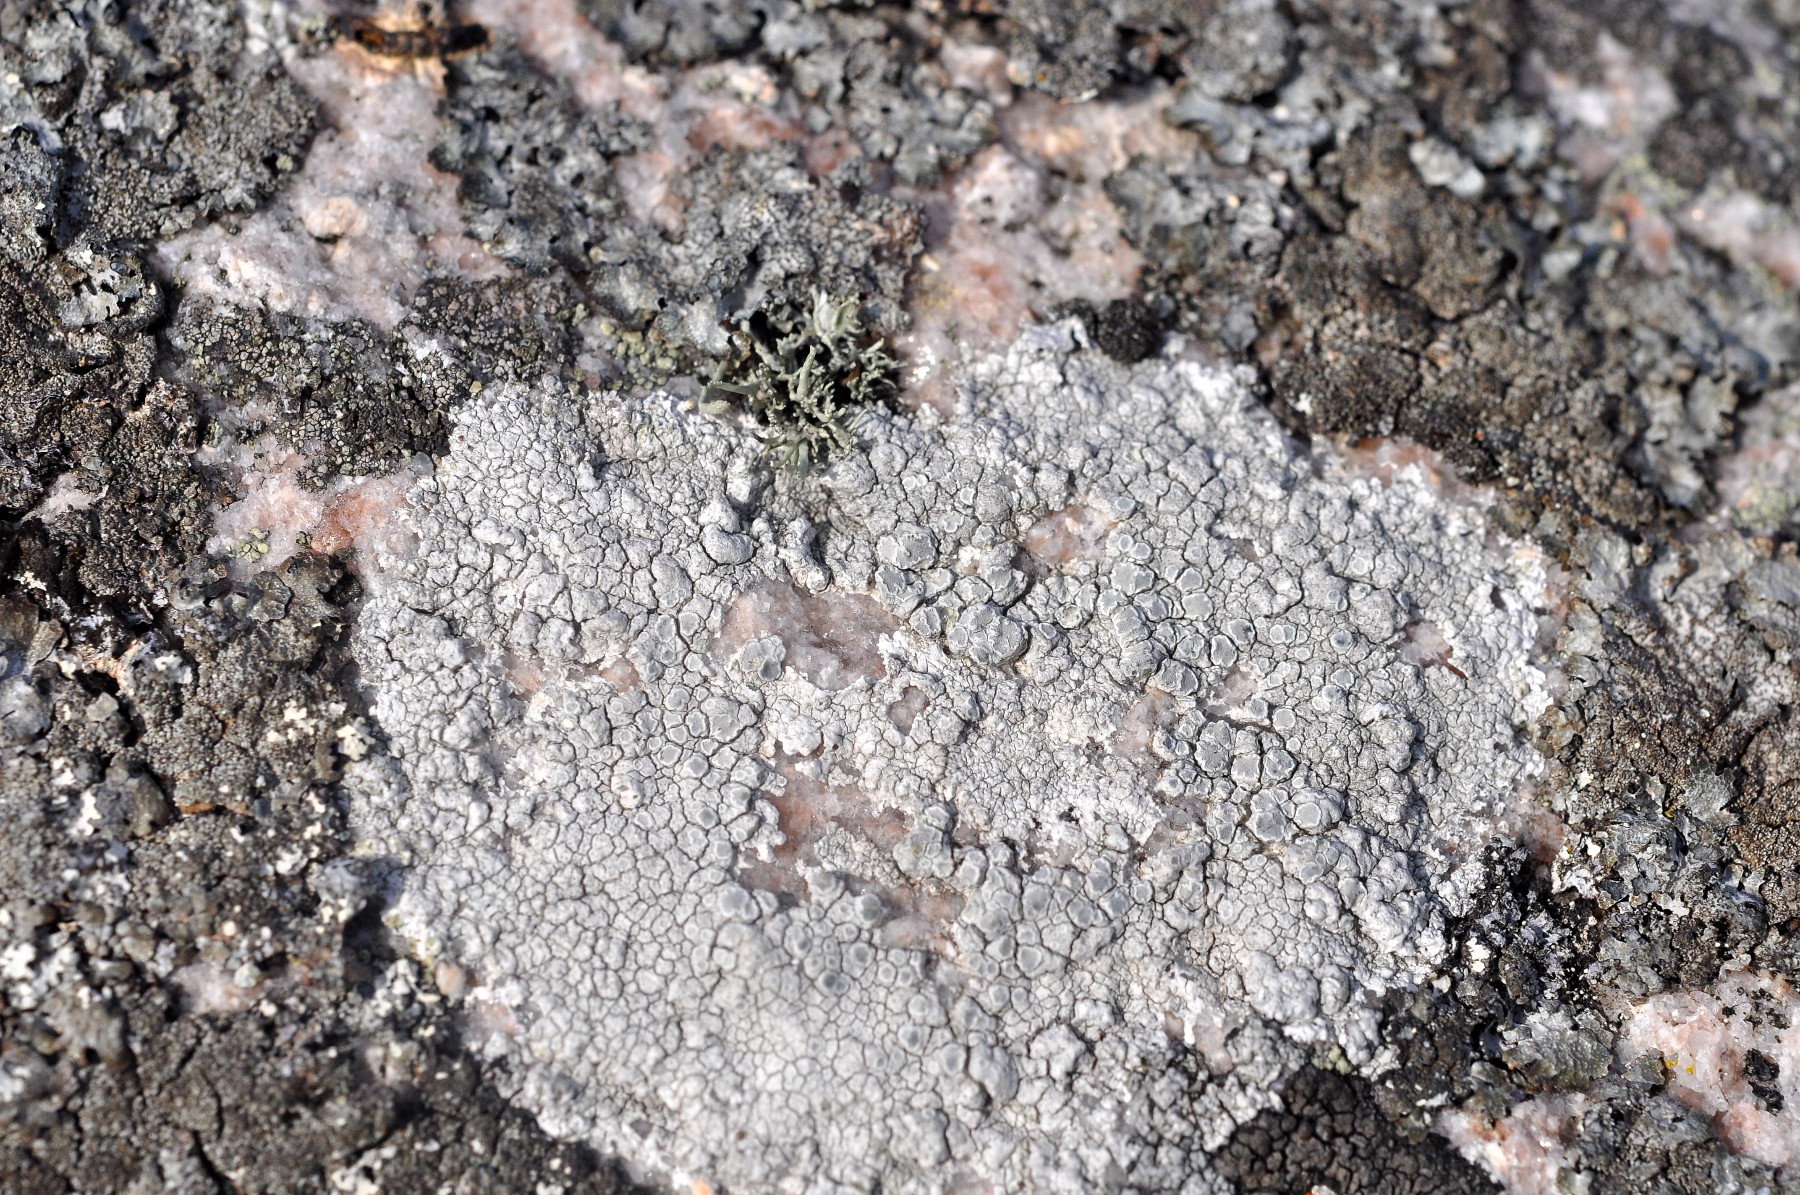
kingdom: Fungi
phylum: Ascomycota
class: Lecanoromycetes
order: Lecanorales
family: Lecanoraceae
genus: Glaucomaria
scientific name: Glaucomaria rupicola
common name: stengærde-kantskivelav
